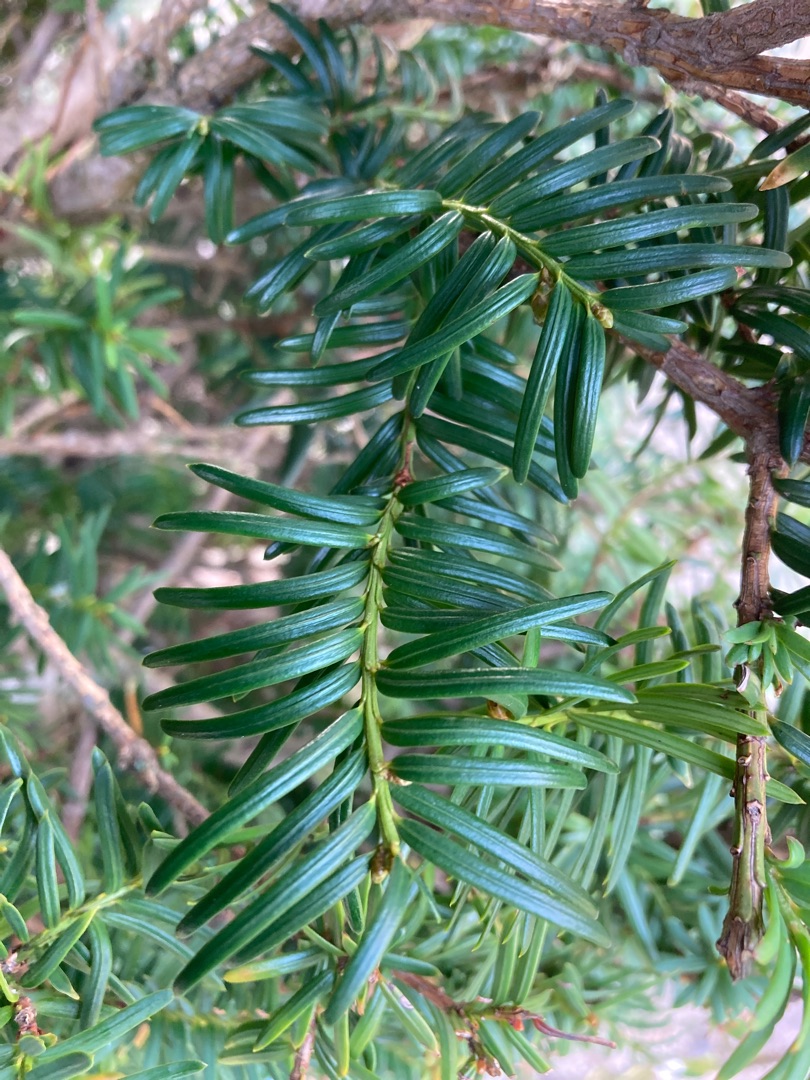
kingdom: Plantae
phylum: Tracheophyta
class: Pinopsida
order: Pinales
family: Taxaceae
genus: Taxus
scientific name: Taxus baccata
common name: Almindelig taks
